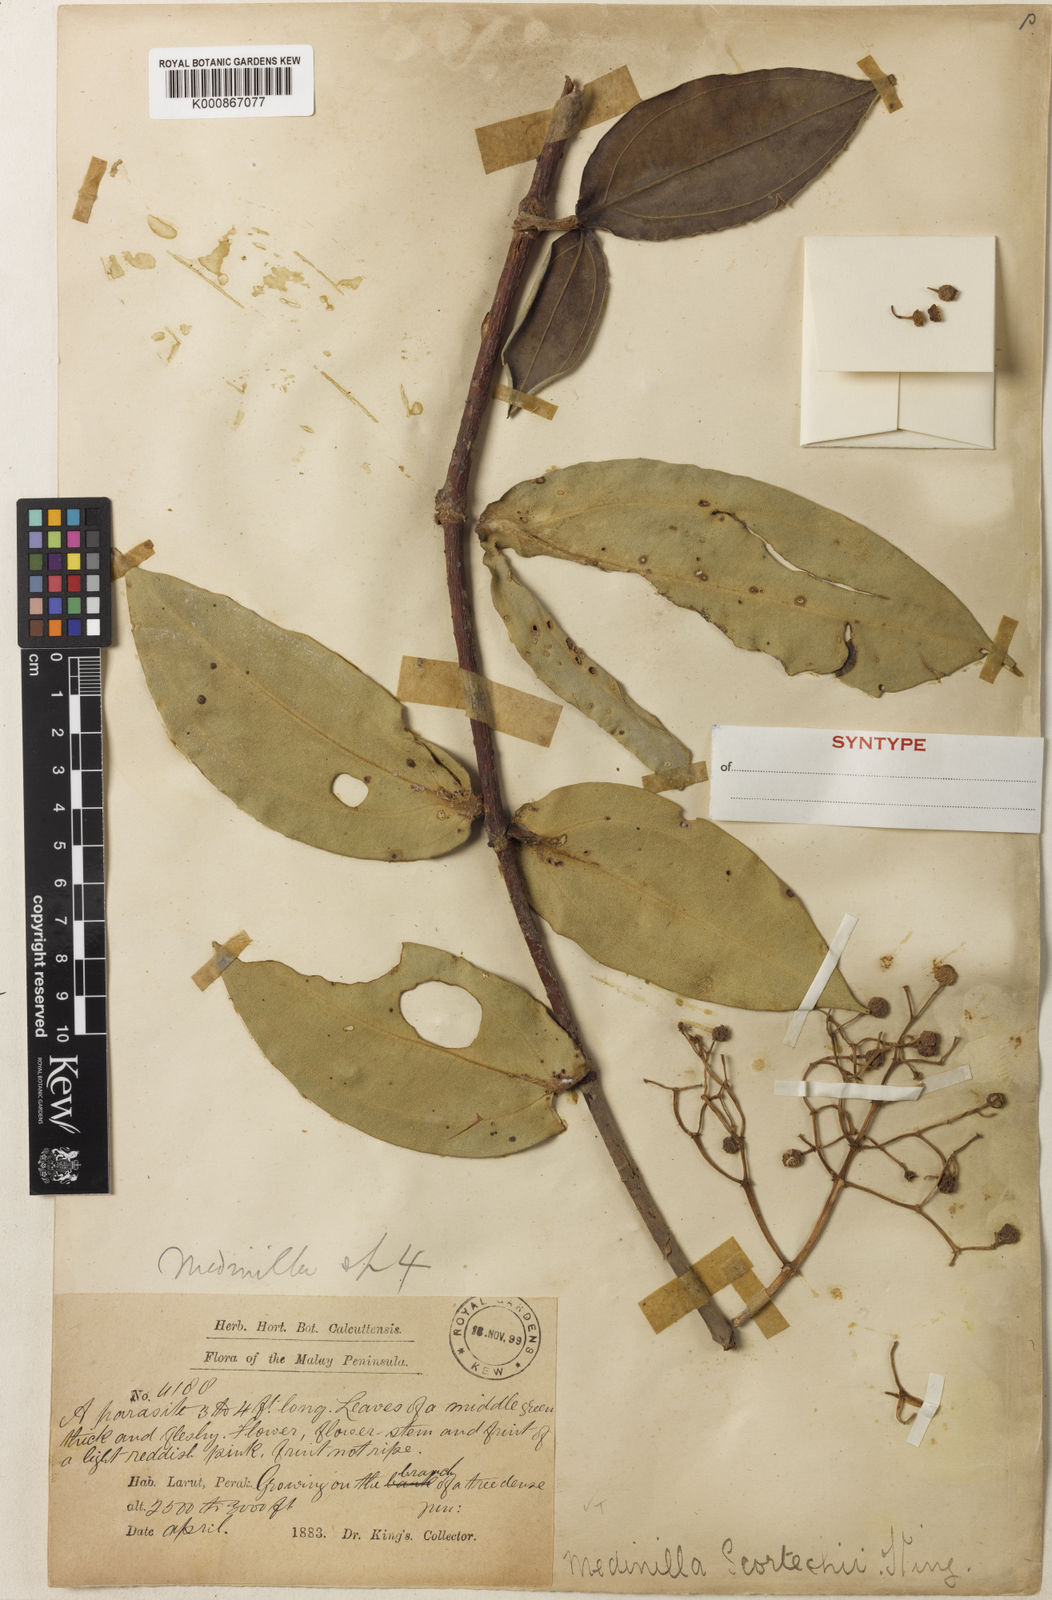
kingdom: Plantae
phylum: Tracheophyta
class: Magnoliopsida
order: Myrtales
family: Melastomataceae
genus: Medinilla
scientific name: Medinilla scortechinii
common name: Coral medinilla
